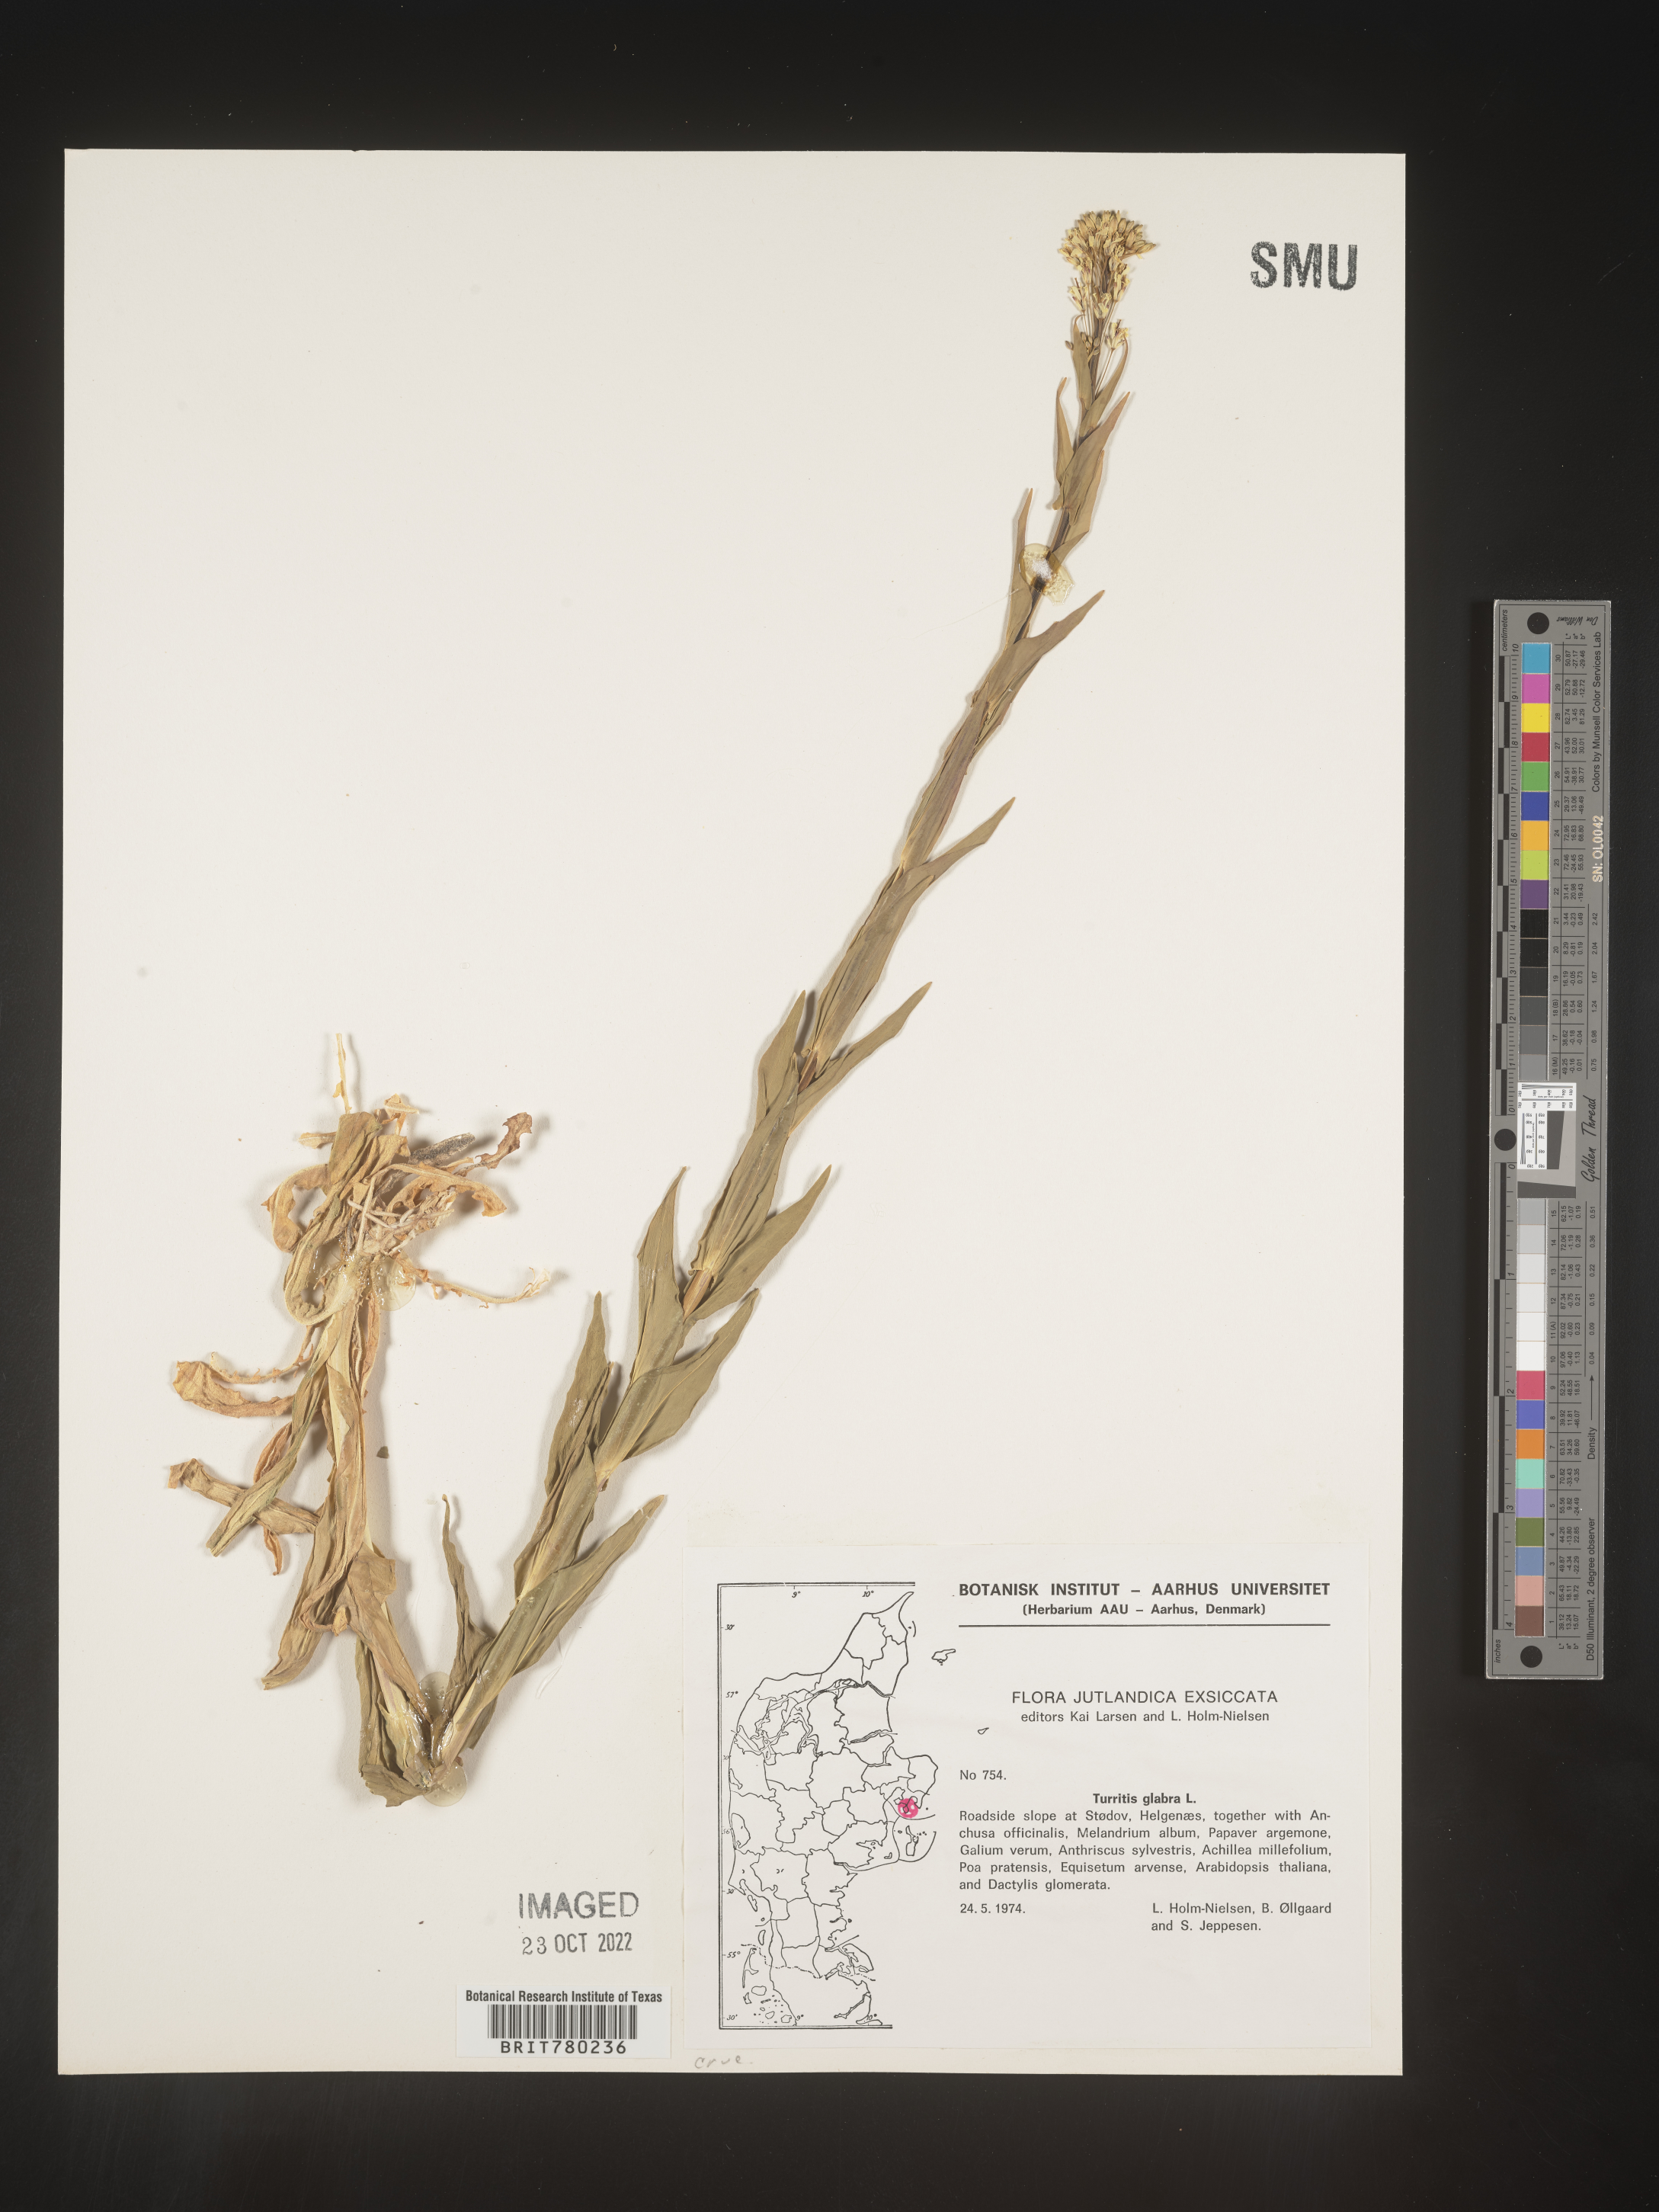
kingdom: Plantae
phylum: Tracheophyta
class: Magnoliopsida
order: Brassicales
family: Brassicaceae
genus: Turritis
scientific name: Turritis
